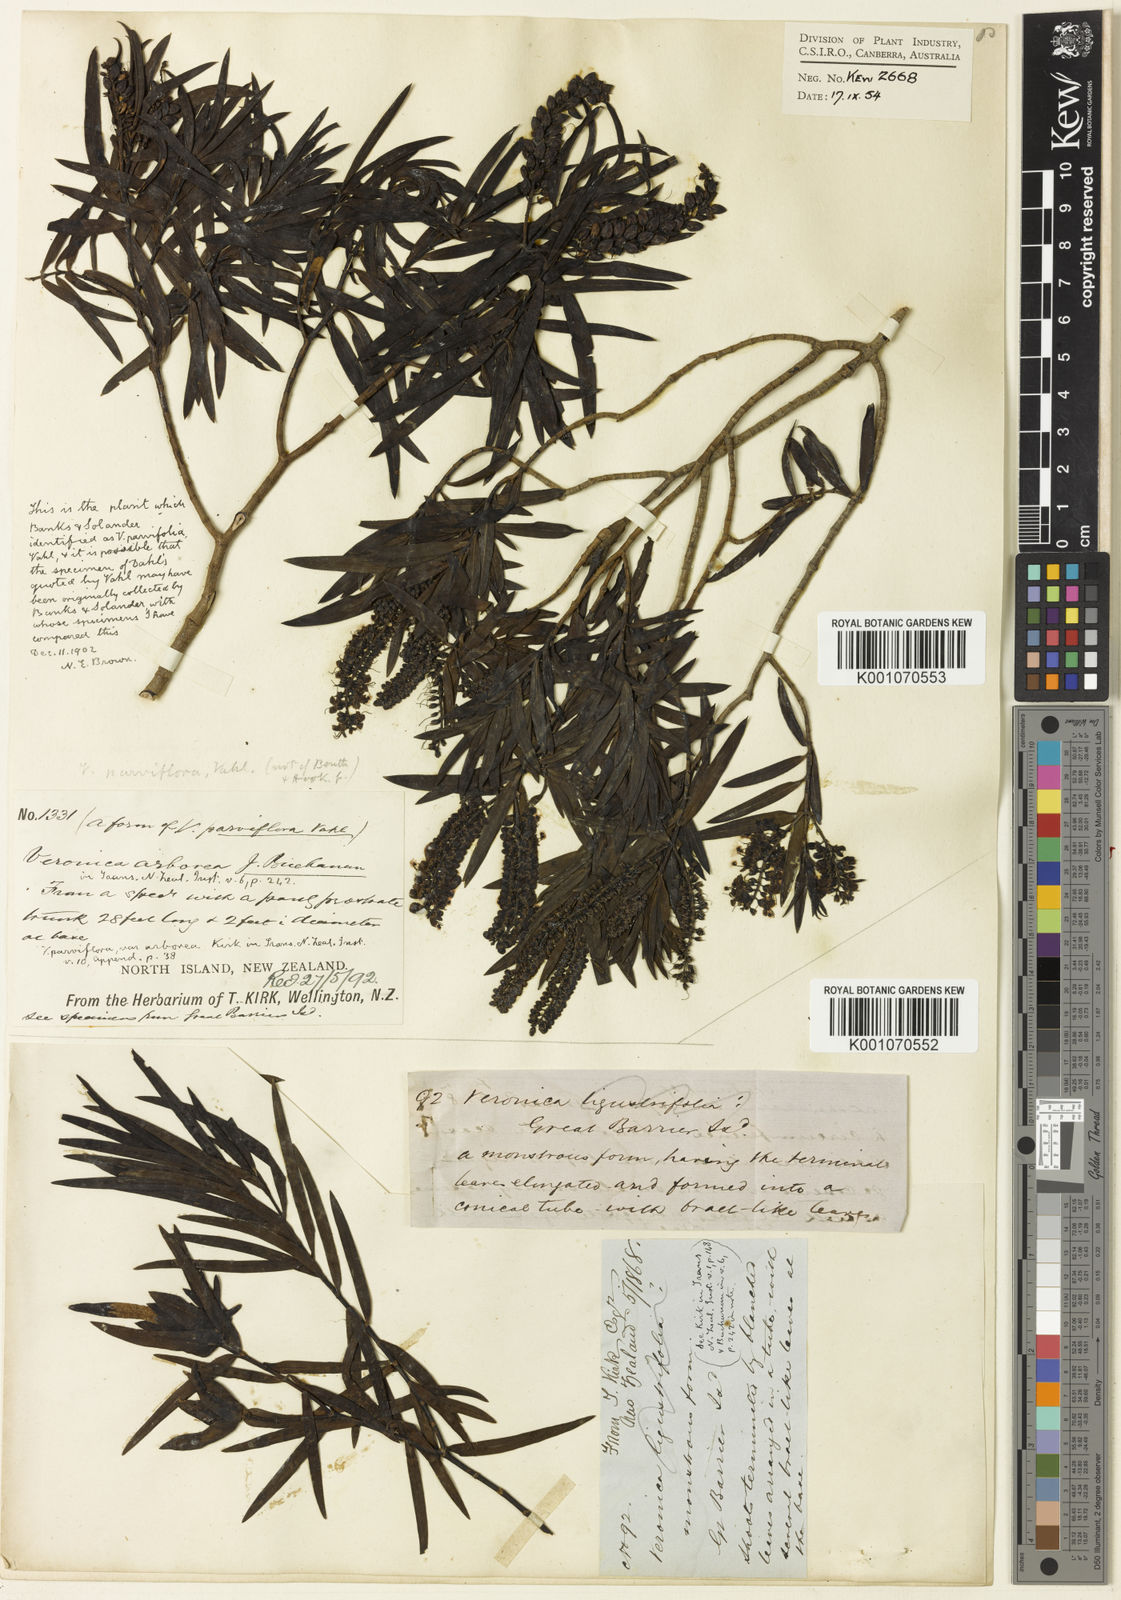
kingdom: Plantae
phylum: Tracheophyta
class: Magnoliopsida
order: Lamiales
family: Plantaginaceae
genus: Veronica
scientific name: Veronica
